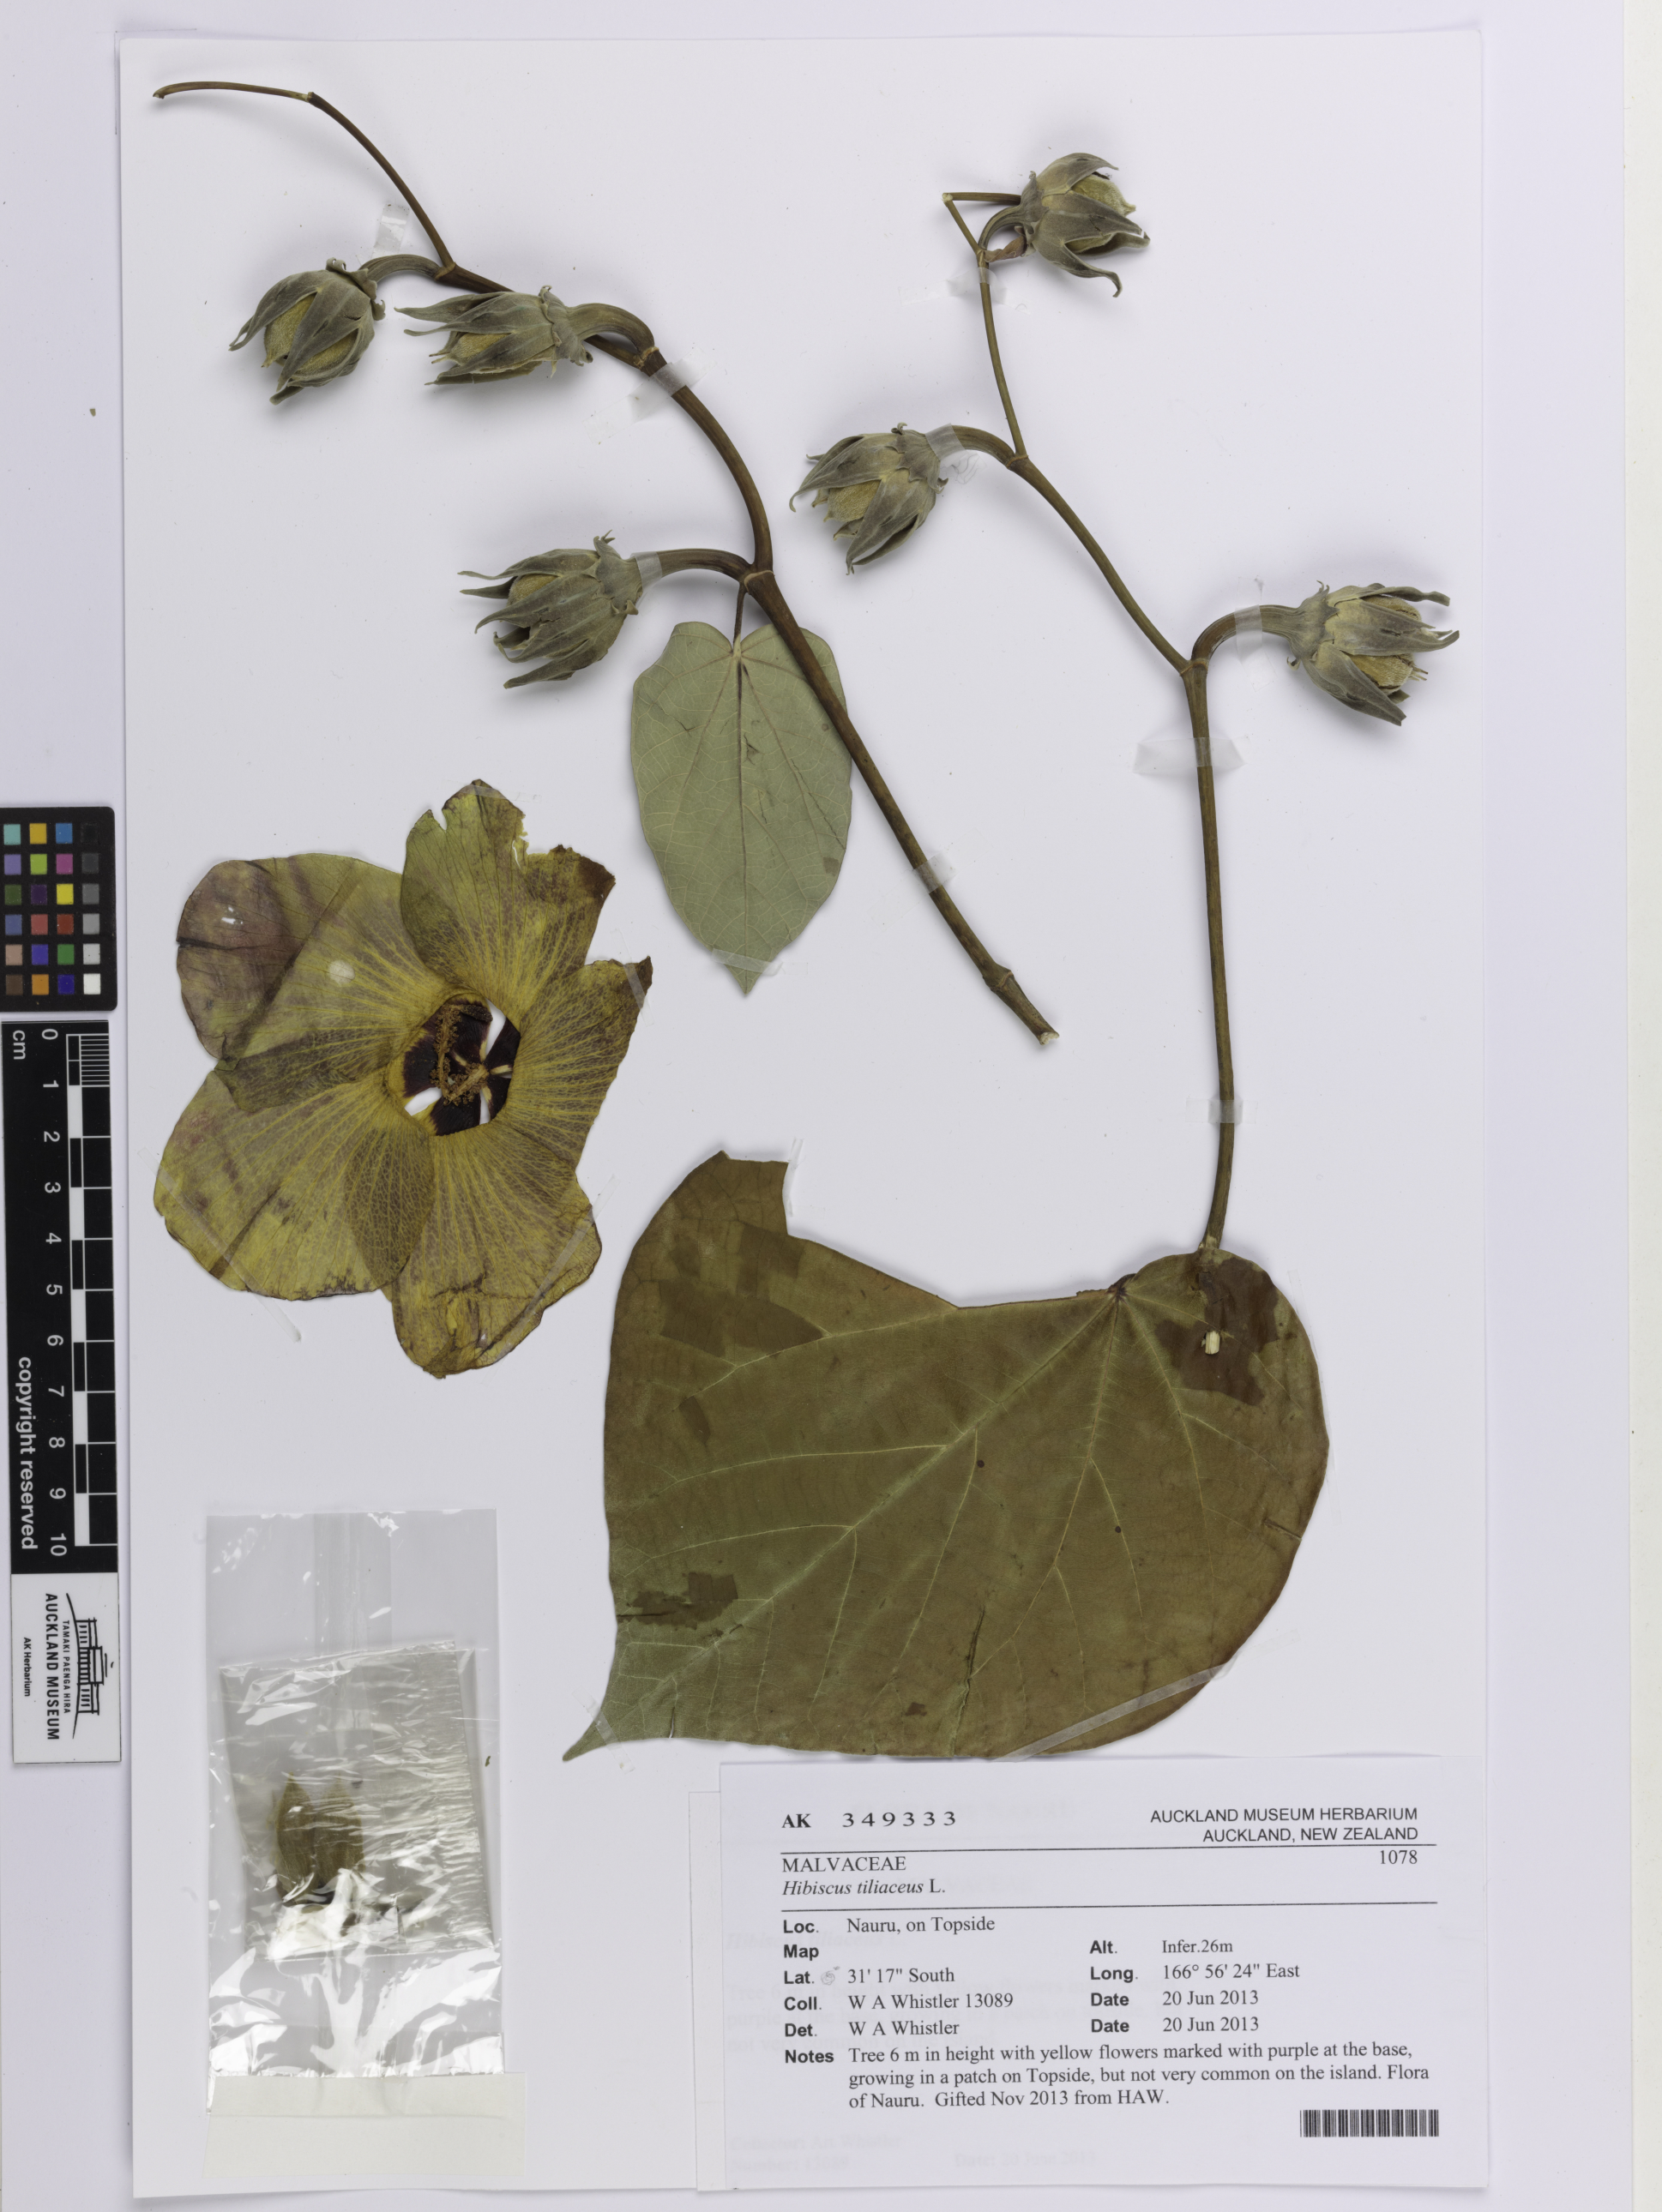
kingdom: Plantae
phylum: Tracheophyta
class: Magnoliopsida
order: Malvales
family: Malvaceae
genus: Talipariti
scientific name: Talipariti tiliaceum
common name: Sea hibiscus
